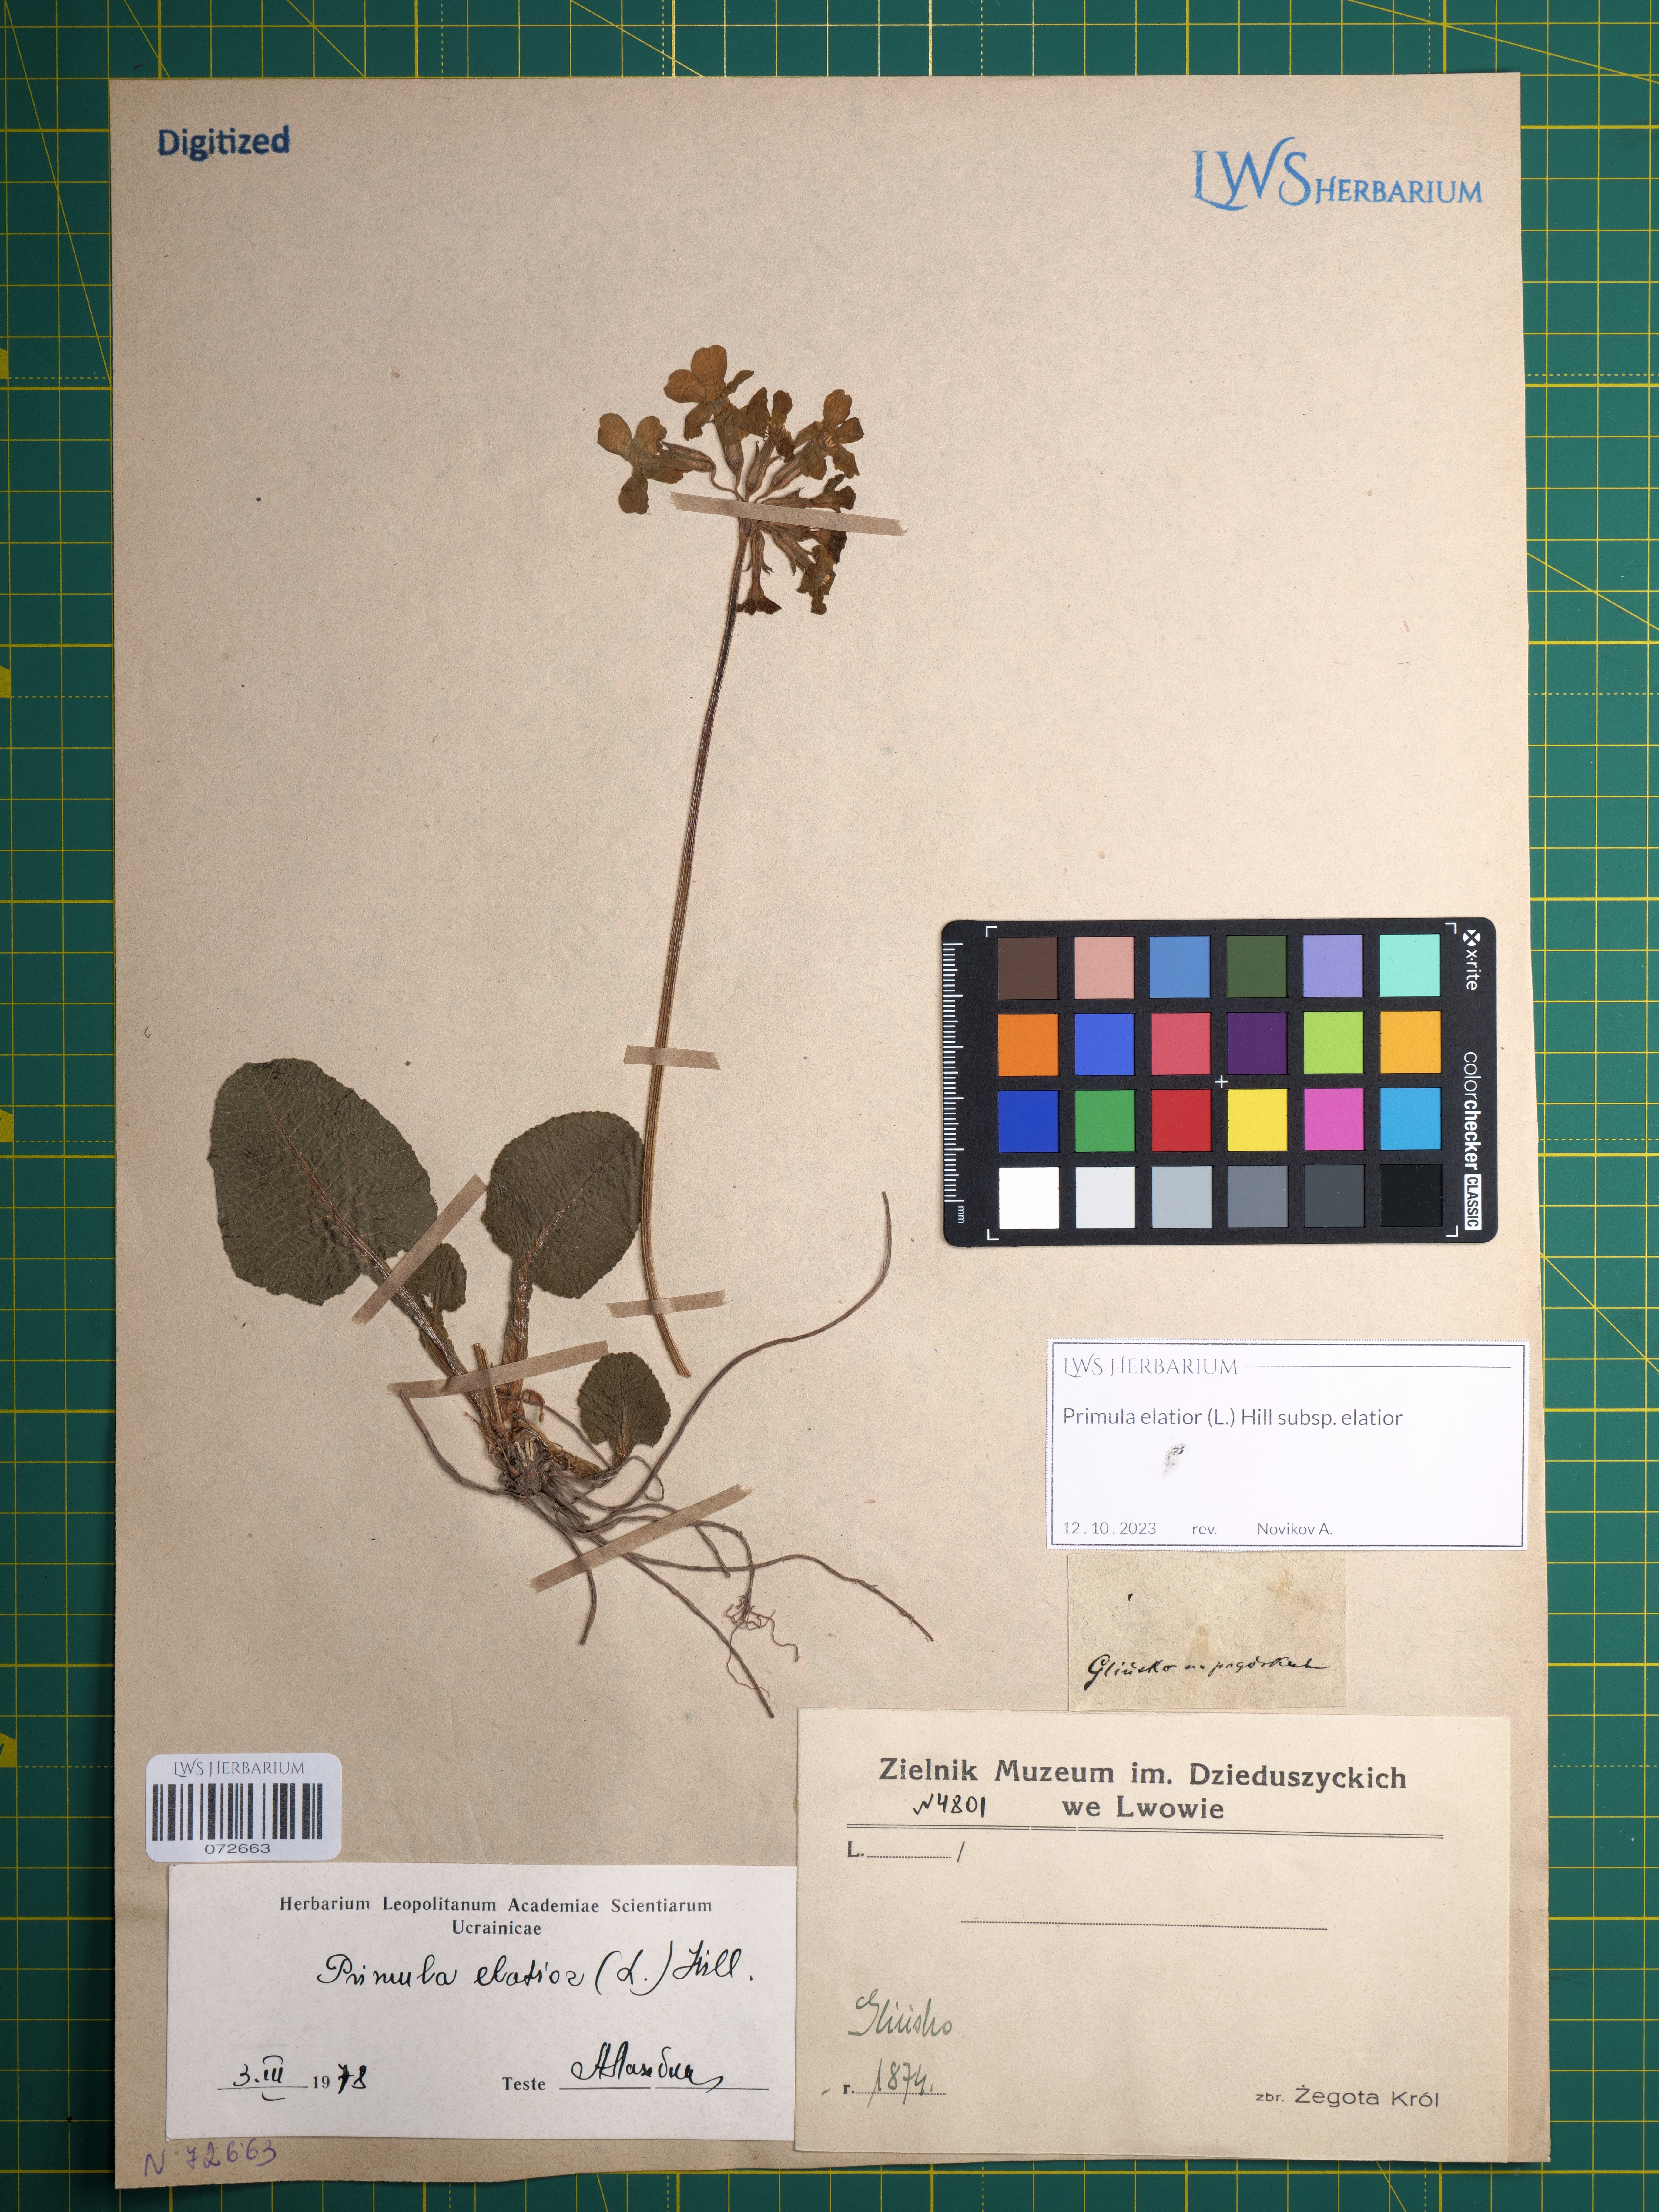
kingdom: Plantae
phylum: Tracheophyta
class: Magnoliopsida
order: Ericales
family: Primulaceae
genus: Primula
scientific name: Primula elatior
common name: Oxlip
